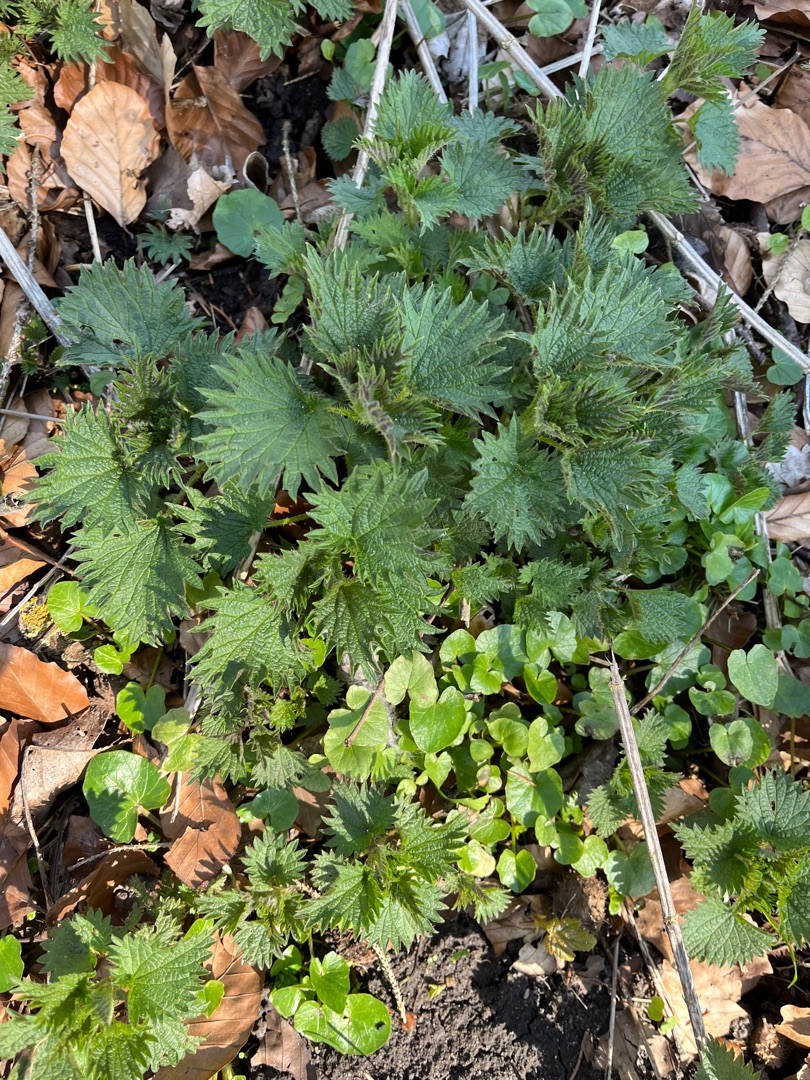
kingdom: Plantae
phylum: Tracheophyta
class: Magnoliopsida
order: Rosales
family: Urticaceae
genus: Urtica
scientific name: Urtica dioica
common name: Stor nælde
